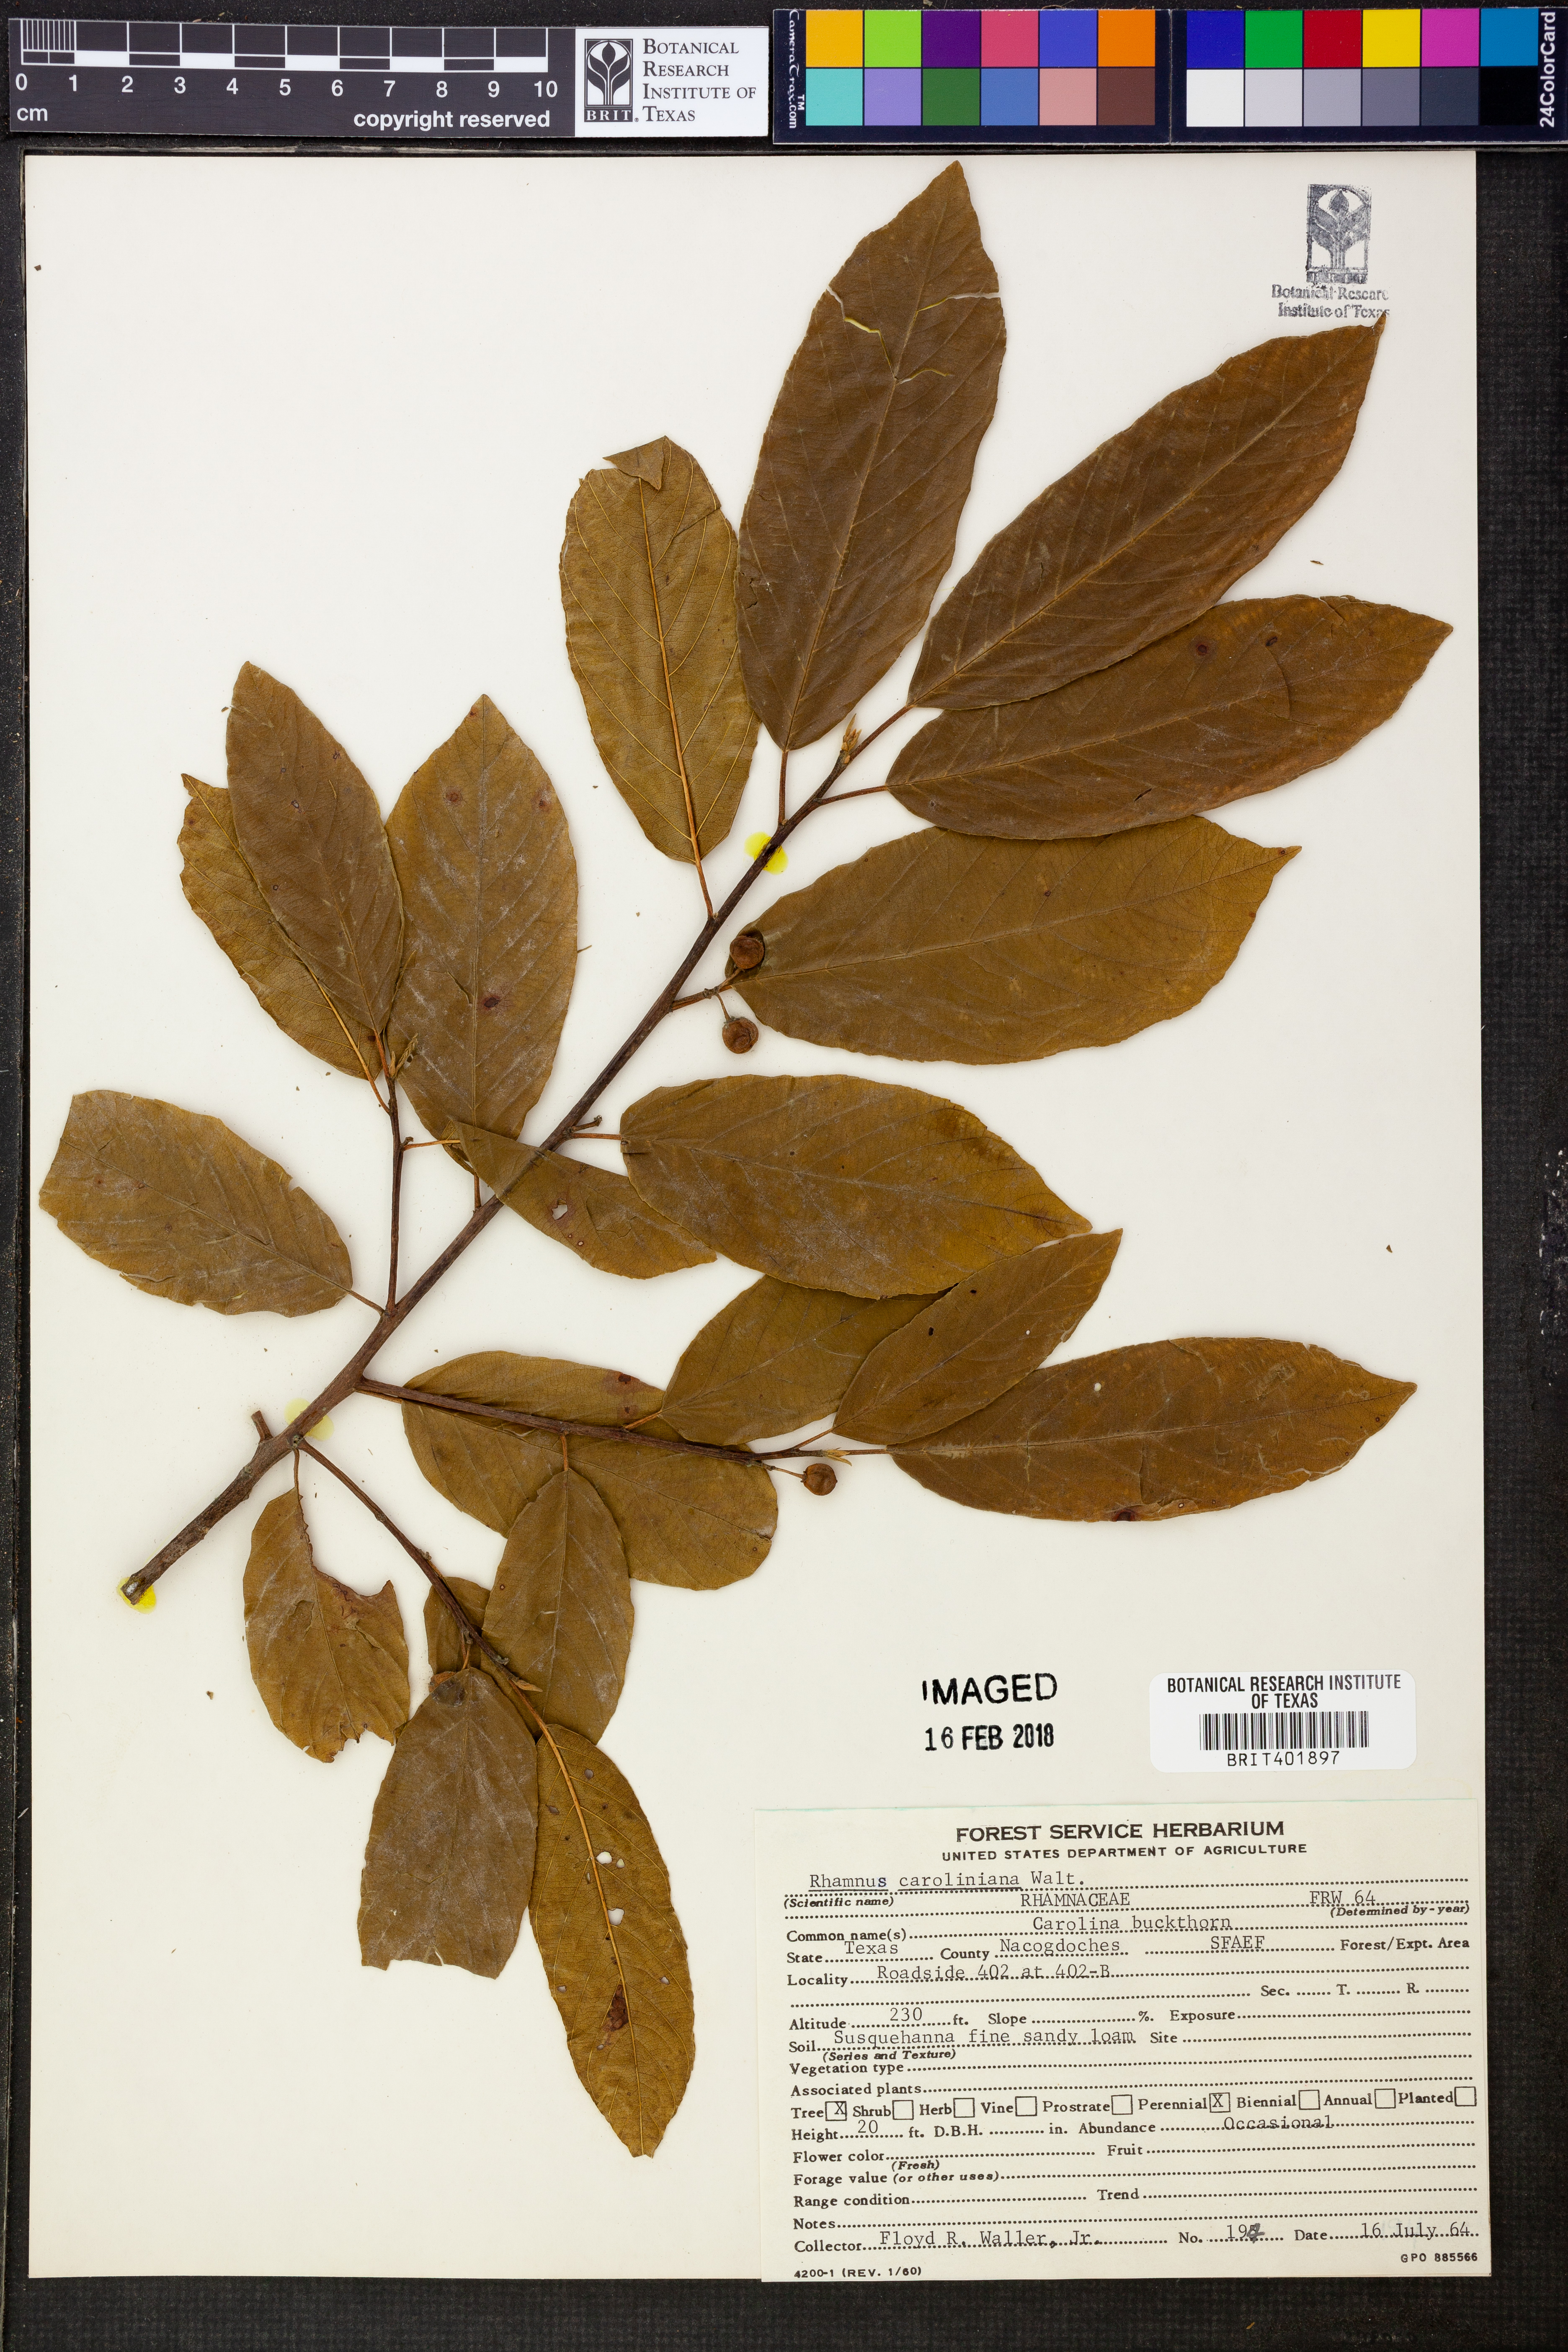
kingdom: Plantae
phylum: Tracheophyta
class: Magnoliopsida
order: Rosales
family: Rhamnaceae
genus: Frangula
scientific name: Frangula caroliniana
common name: Carolina buckthorn
